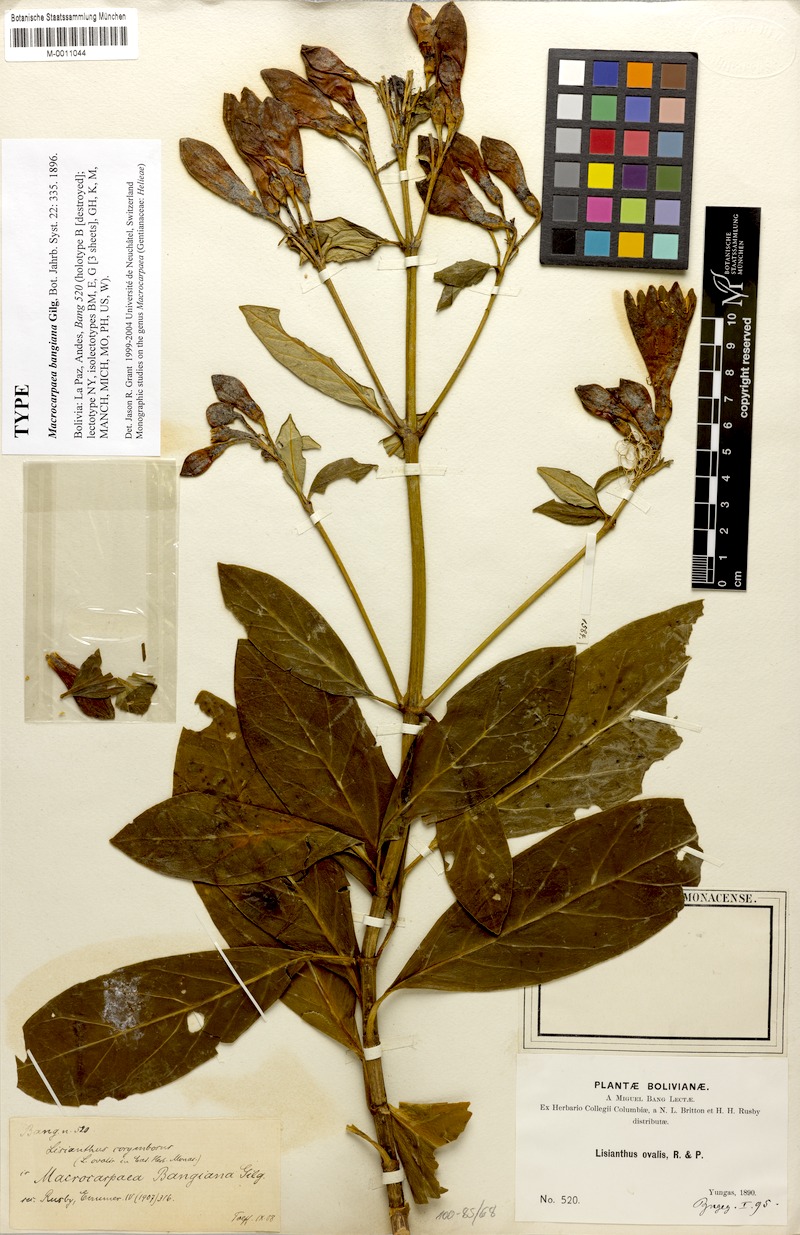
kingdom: Plantae
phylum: Tracheophyta
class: Magnoliopsida
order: Gentianales
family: Gentianaceae
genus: Macrocarpaea
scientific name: Macrocarpaea bangiana
